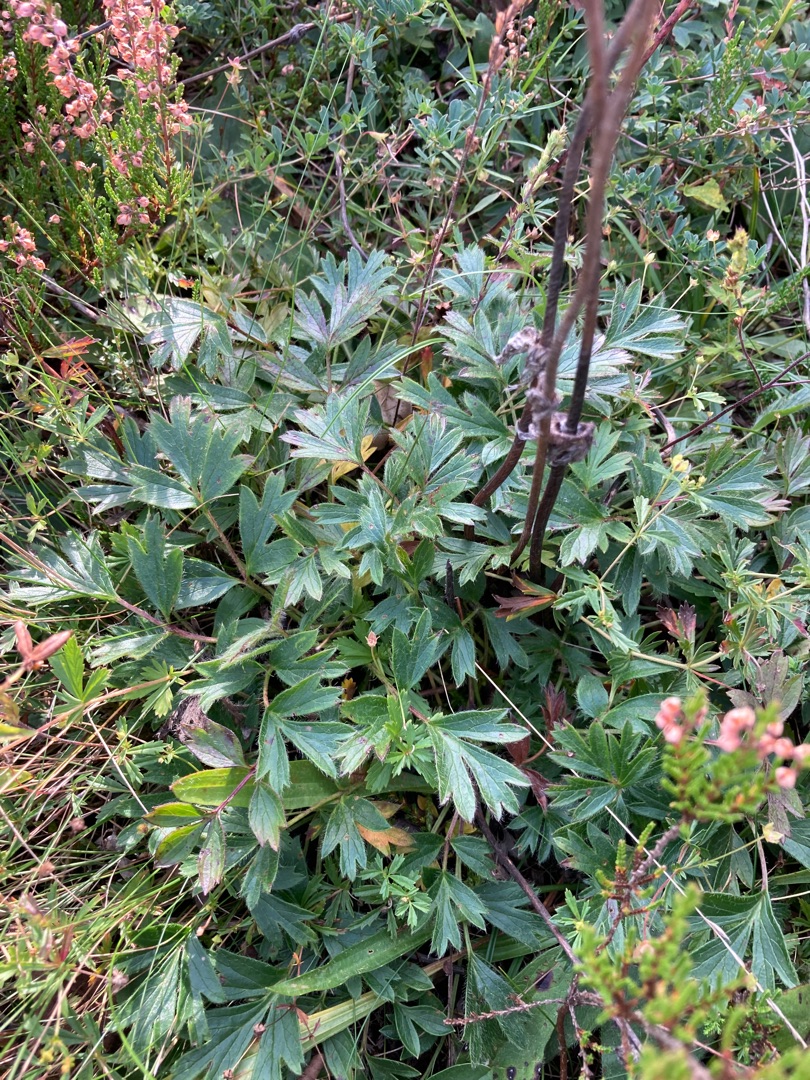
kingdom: Plantae
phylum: Tracheophyta
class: Magnoliopsida
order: Ranunculales
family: Ranunculaceae
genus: Pulsatilla
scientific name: Pulsatilla vernalis
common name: Vår-kobjælde
